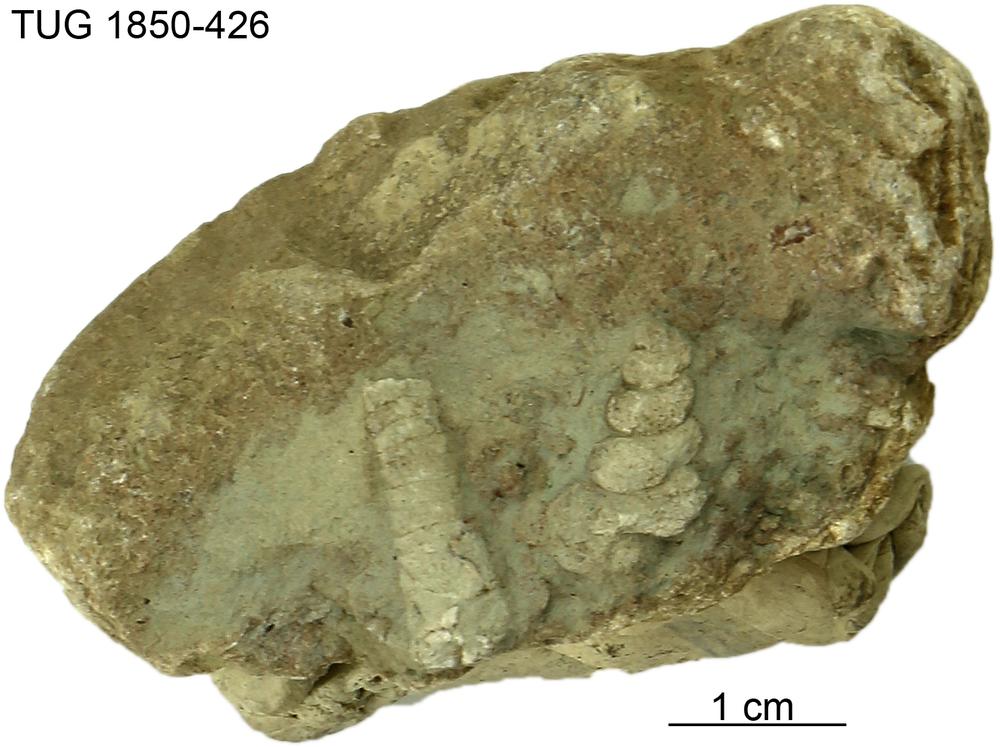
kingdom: Animalia
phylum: Mollusca
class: Gastropoda
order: Pleurotomariida
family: Murchisoniidae
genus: Hormotoma
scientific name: Hormotoma
